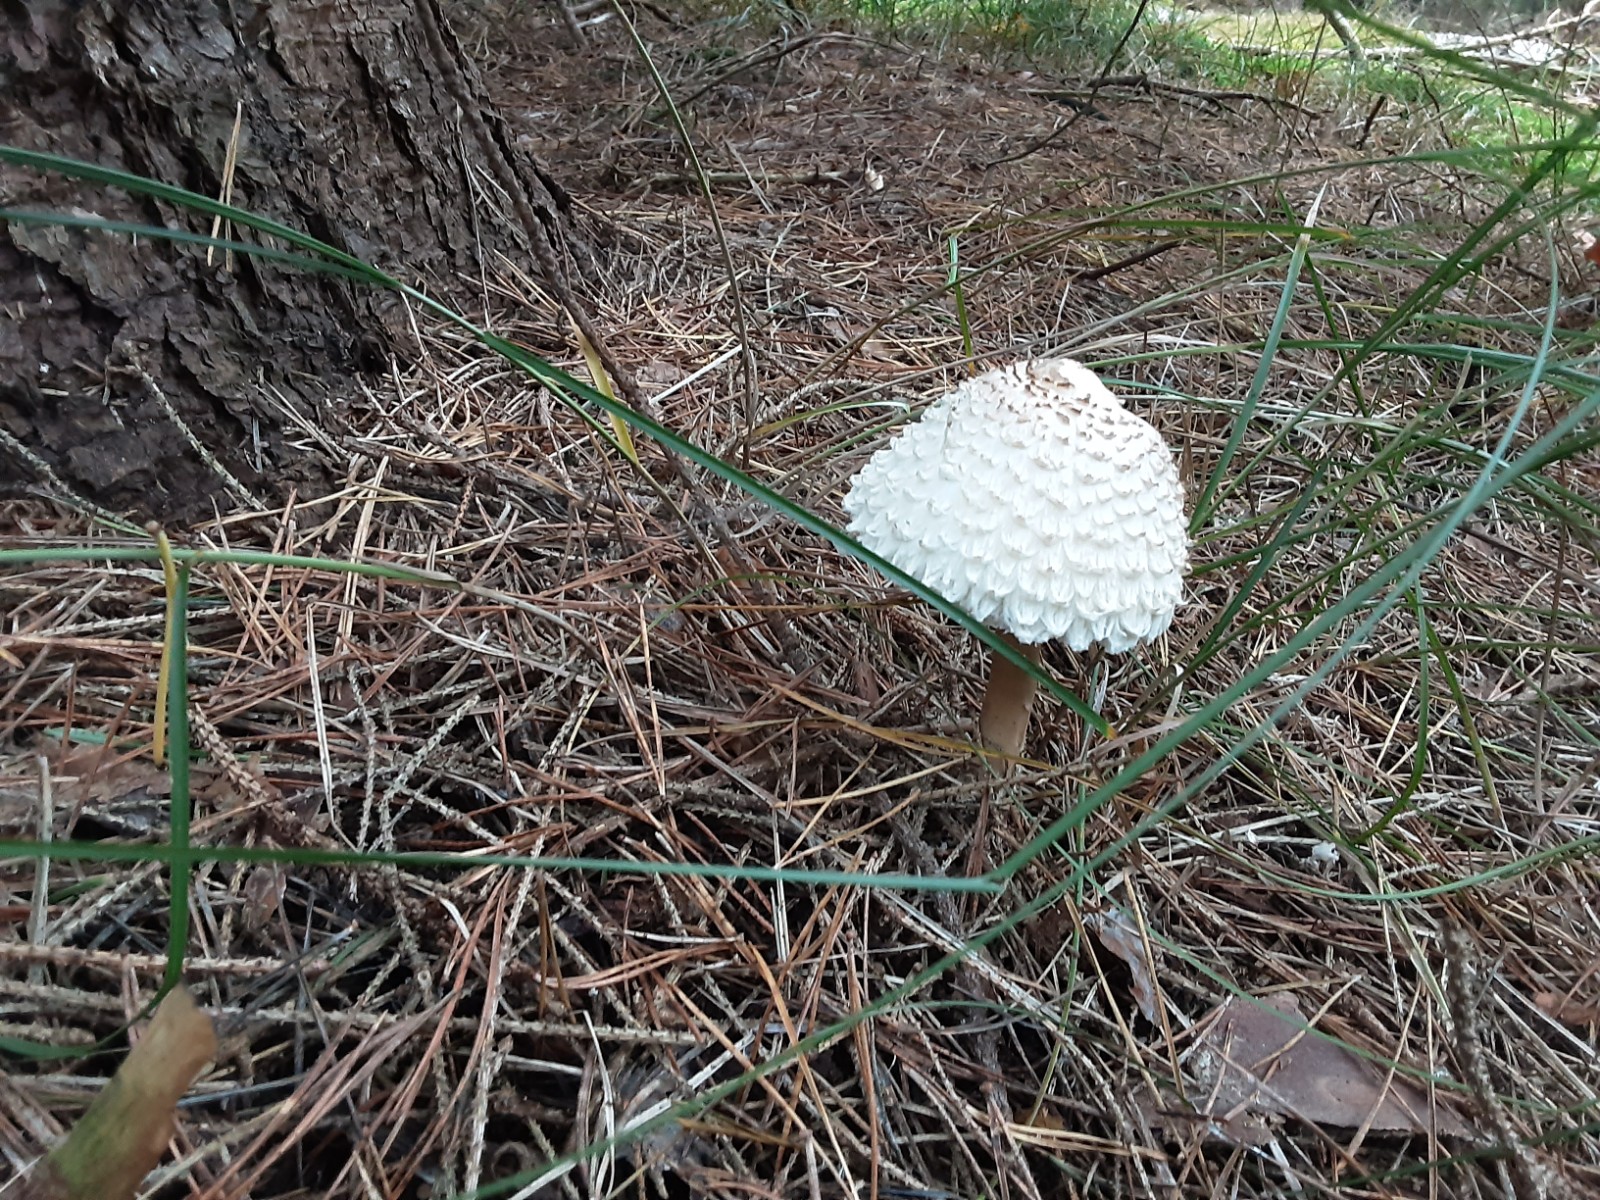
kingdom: Fungi
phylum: Basidiomycota
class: Agaricomycetes
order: Agaricales
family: Agaricaceae
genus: Leucoagaricus
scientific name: Leucoagaricus nympharum
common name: gran-silkehat
